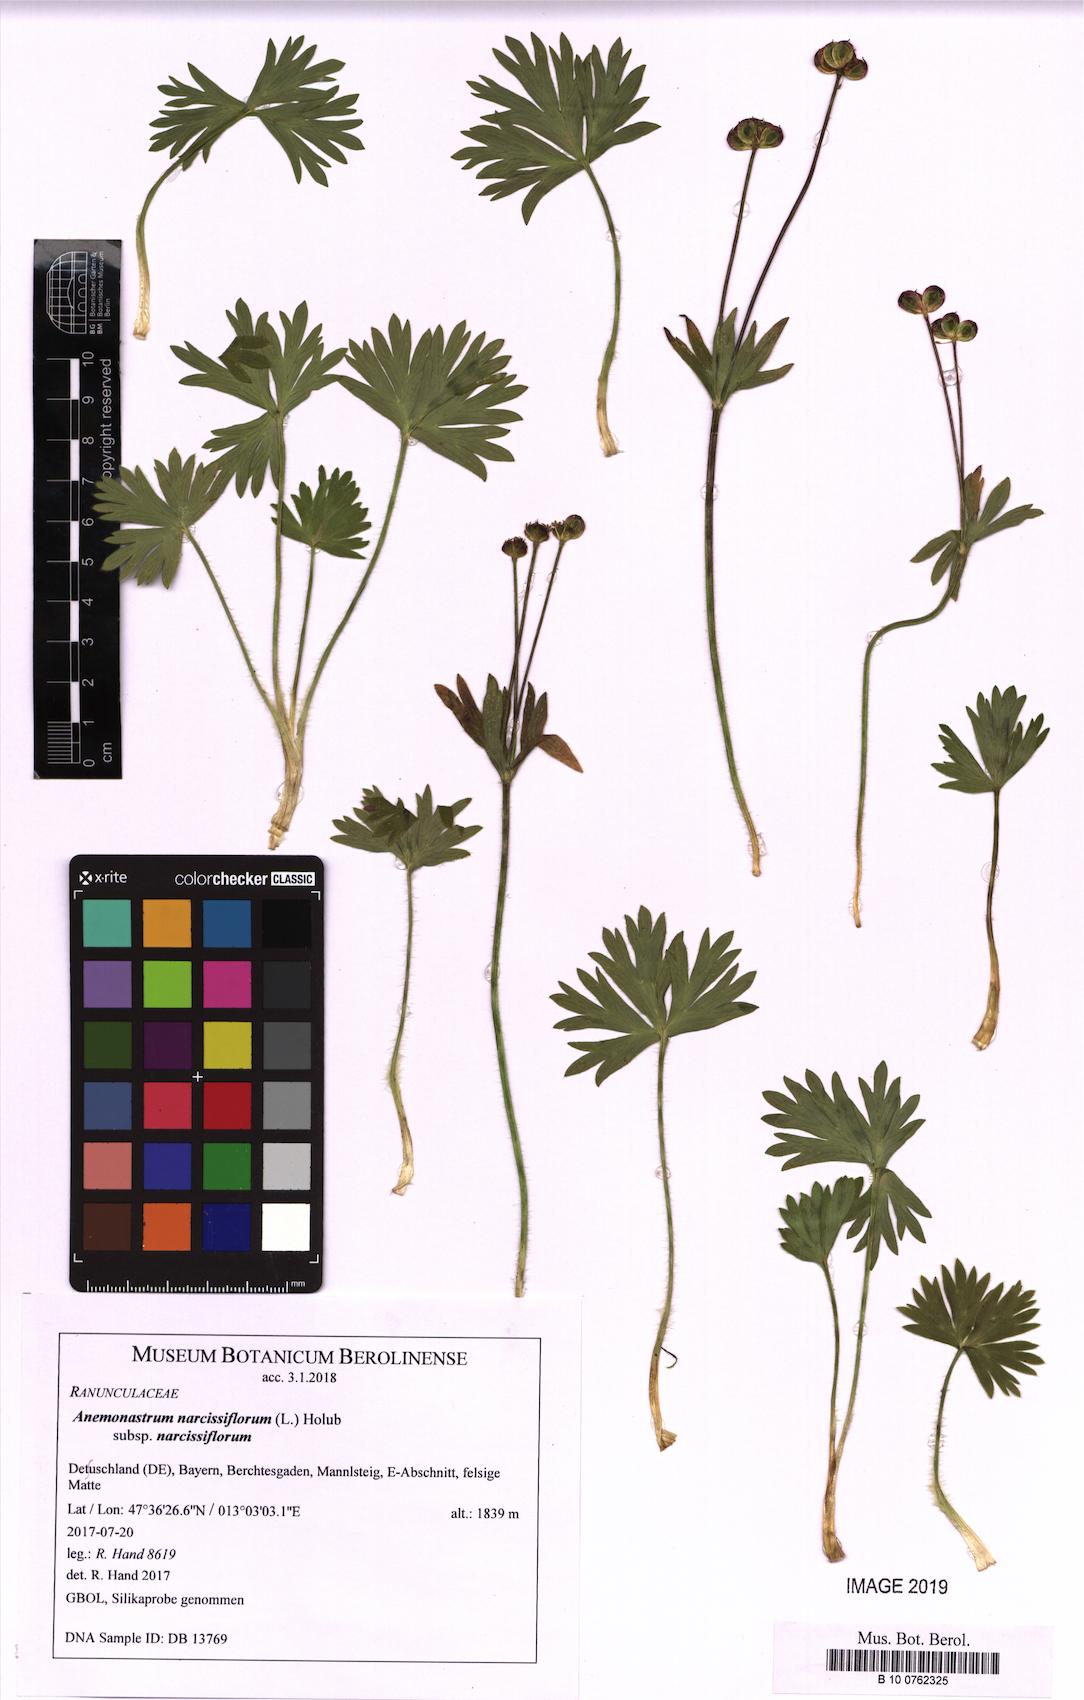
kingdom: Plantae
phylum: Tracheophyta
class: Magnoliopsida
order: Ranunculales
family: Ranunculaceae
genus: Anemonastrum
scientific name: Anemonastrum narcissiflorum
